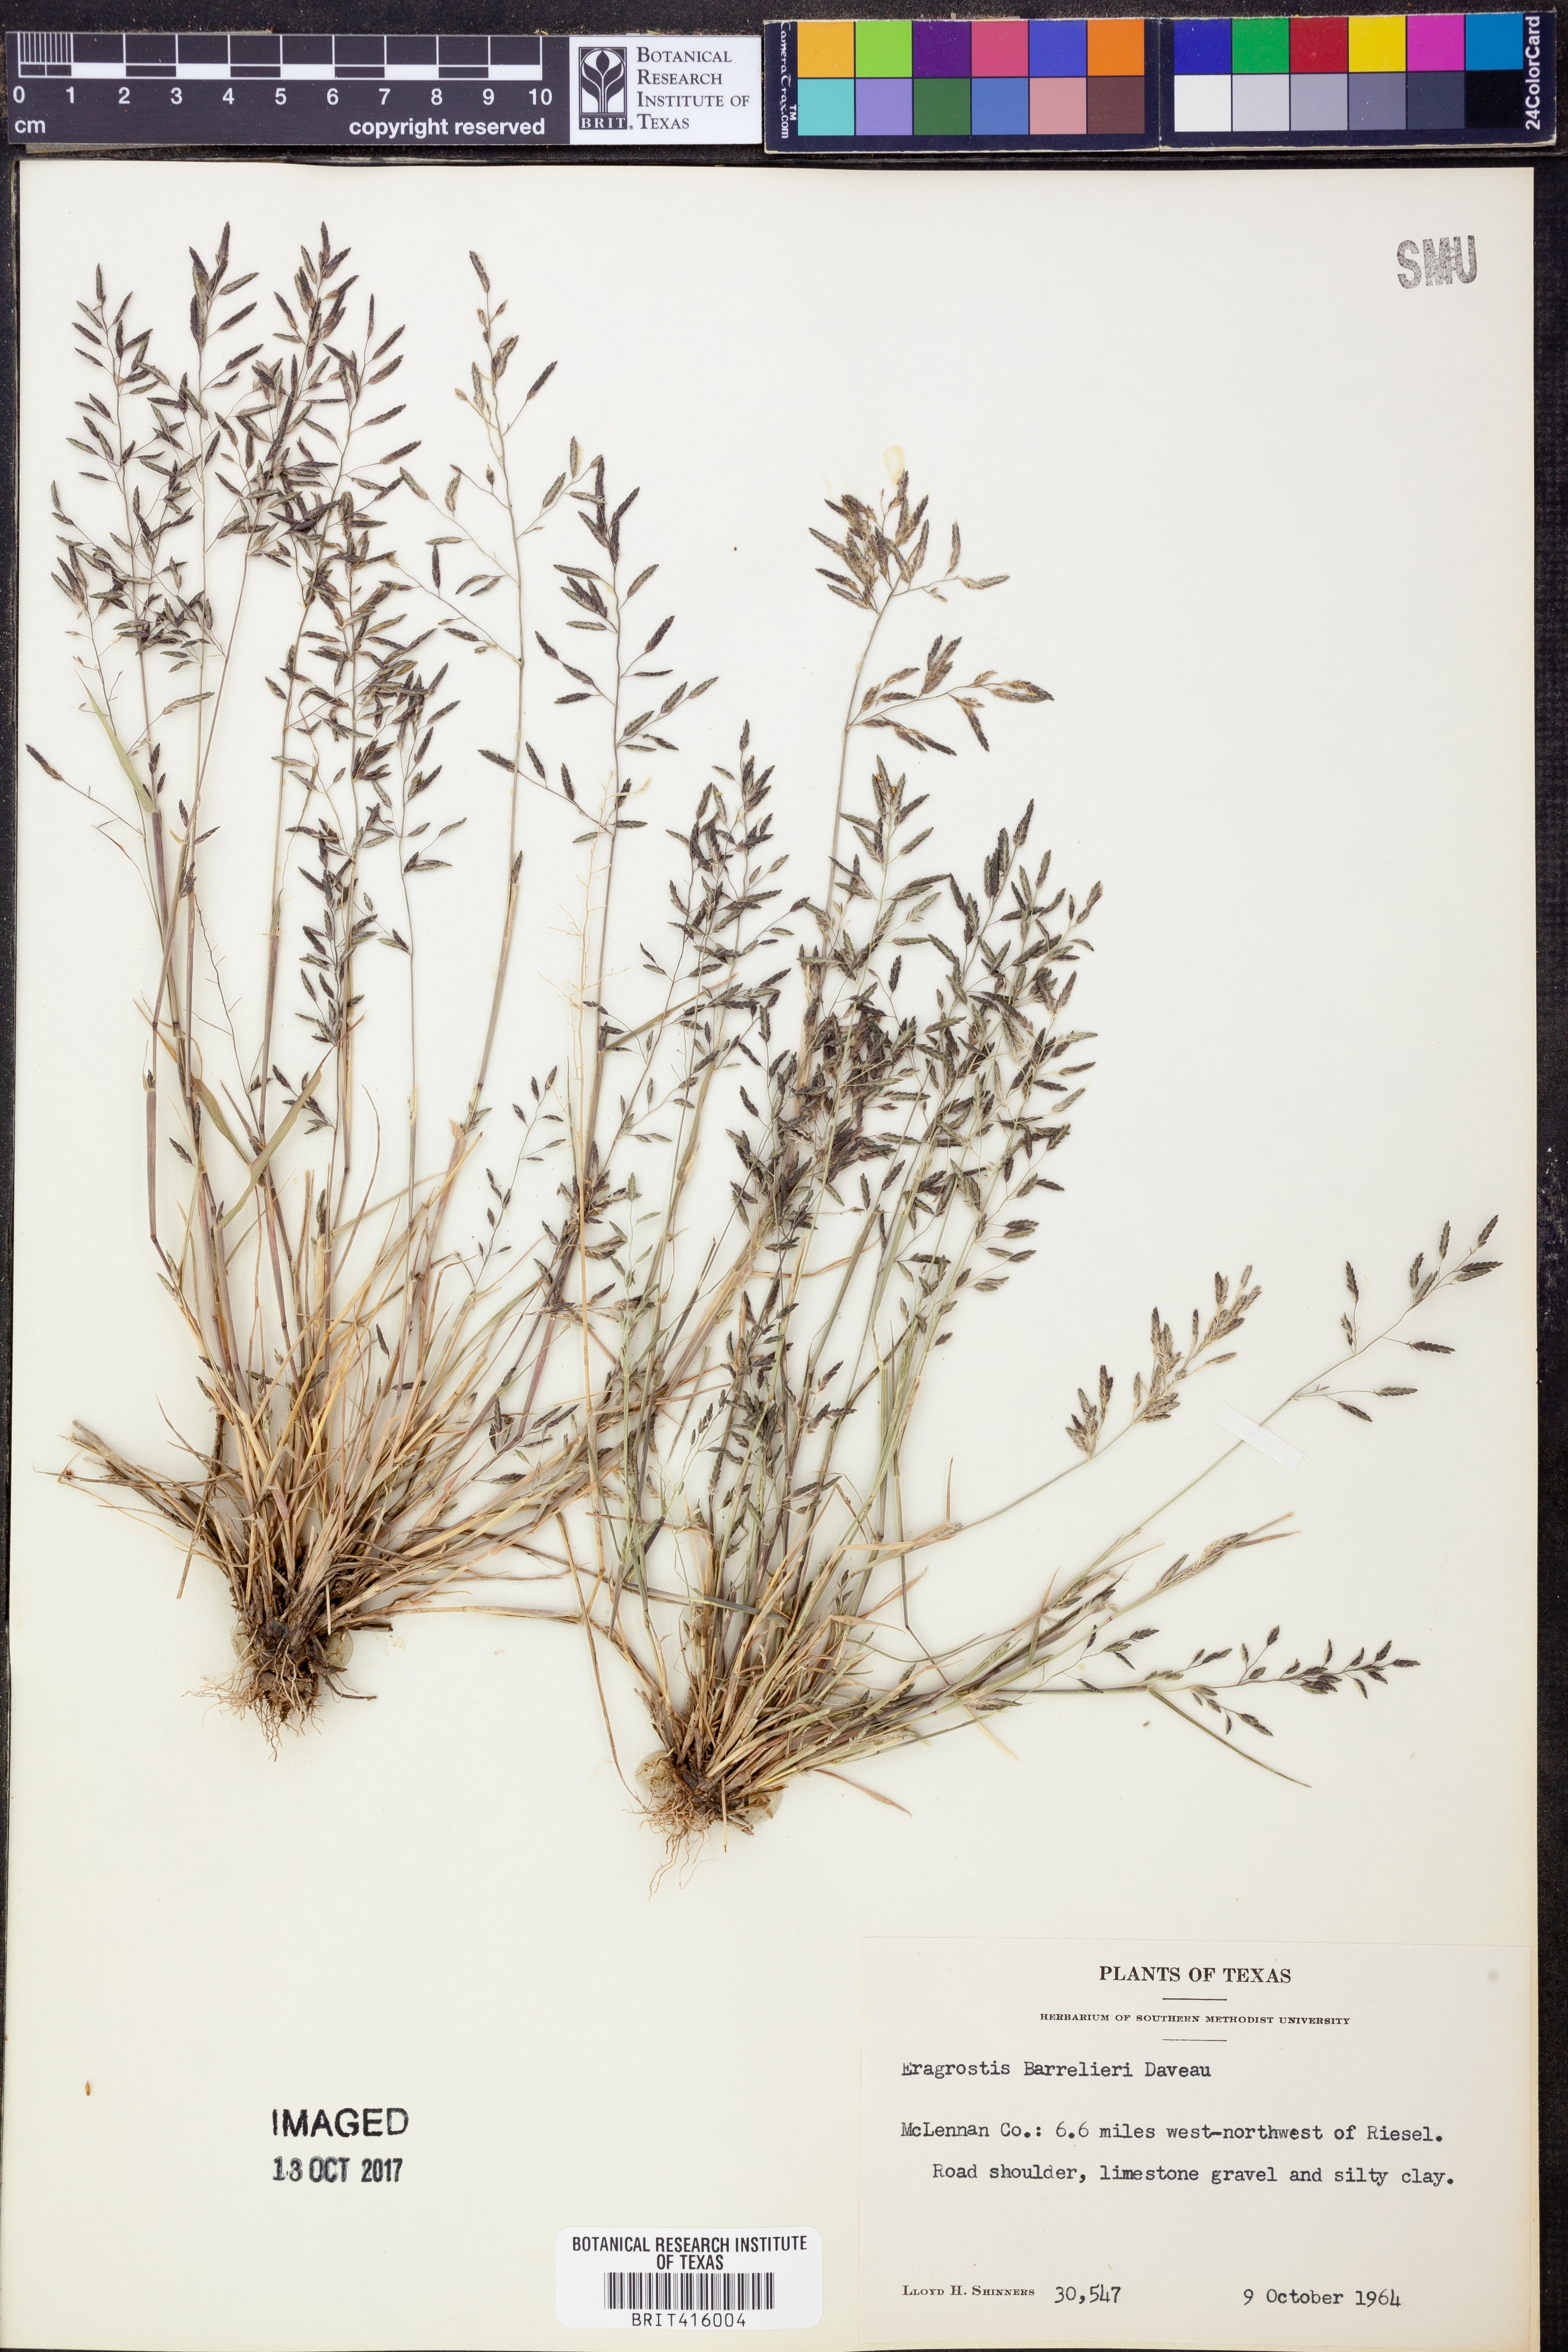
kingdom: Plantae
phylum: Tracheophyta
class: Liliopsida
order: Poales
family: Poaceae
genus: Eragrostis
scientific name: Eragrostis barrelieri
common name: Mediterranean lovegrass
